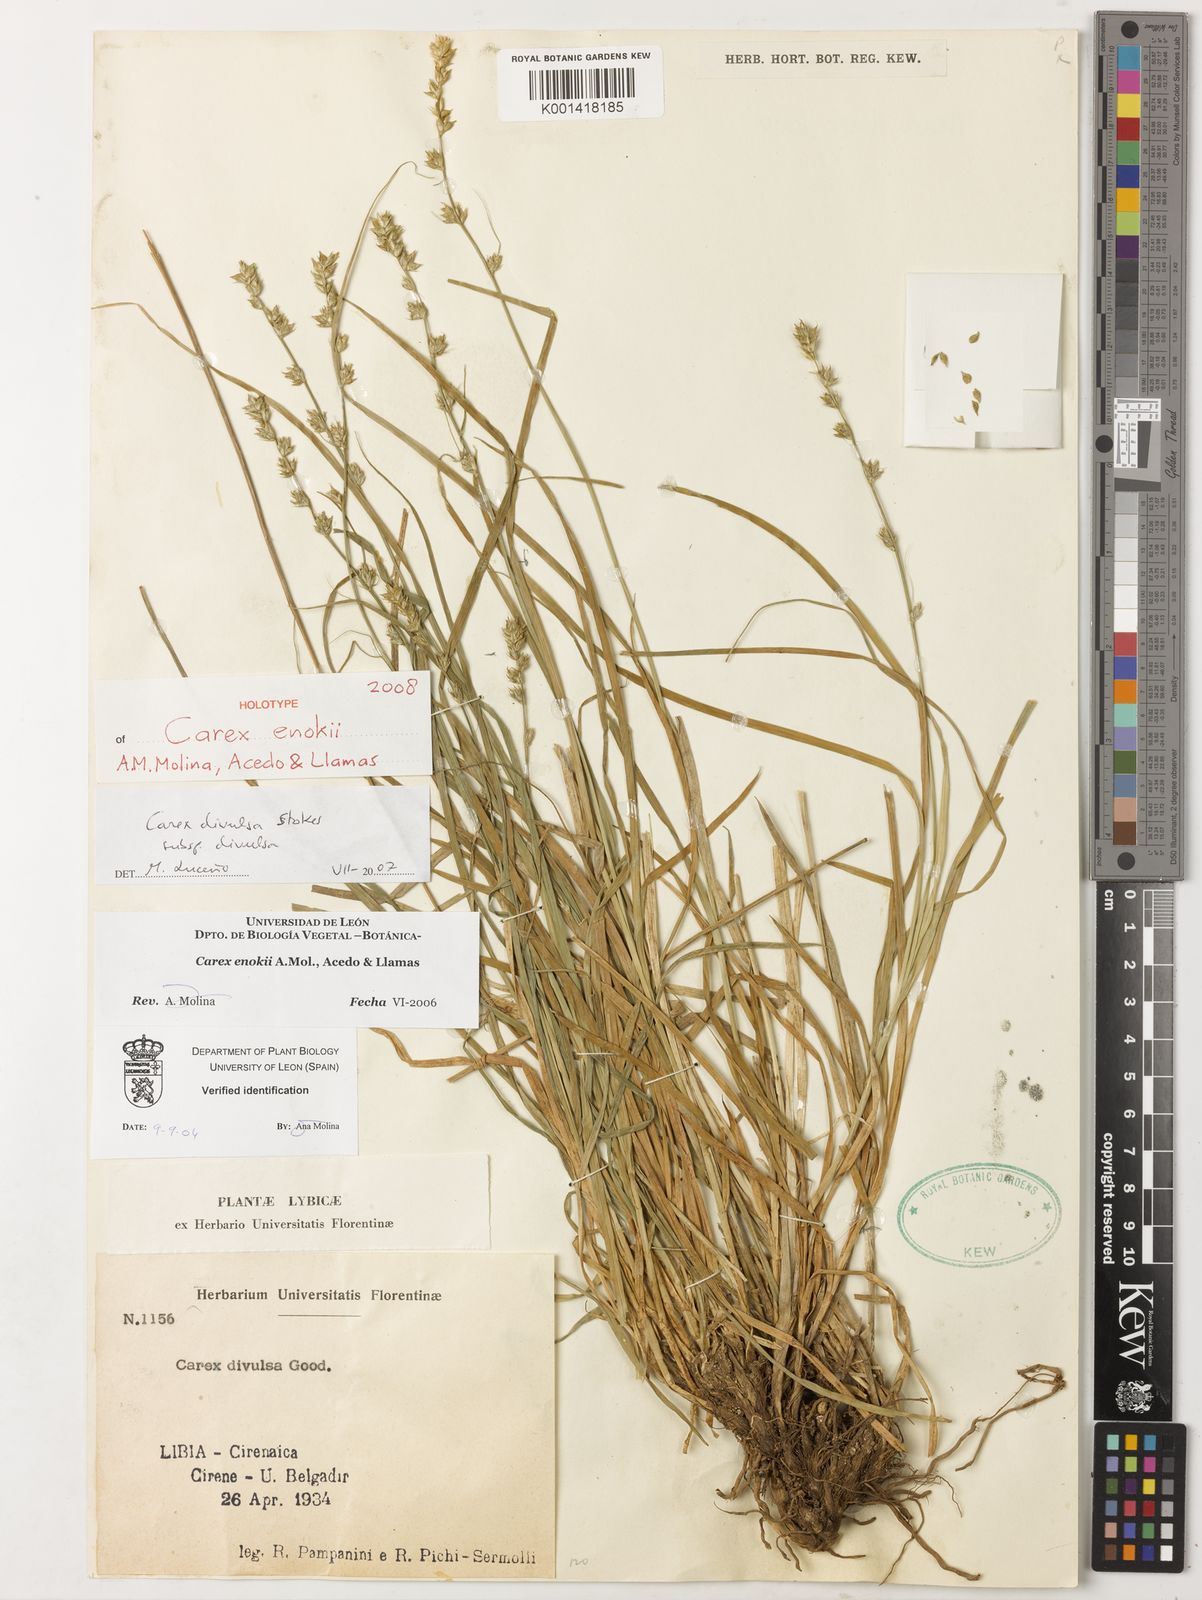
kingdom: Plantae
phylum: Tracheophyta
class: Liliopsida
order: Poales
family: Cyperaceae
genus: Carex
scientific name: Carex
